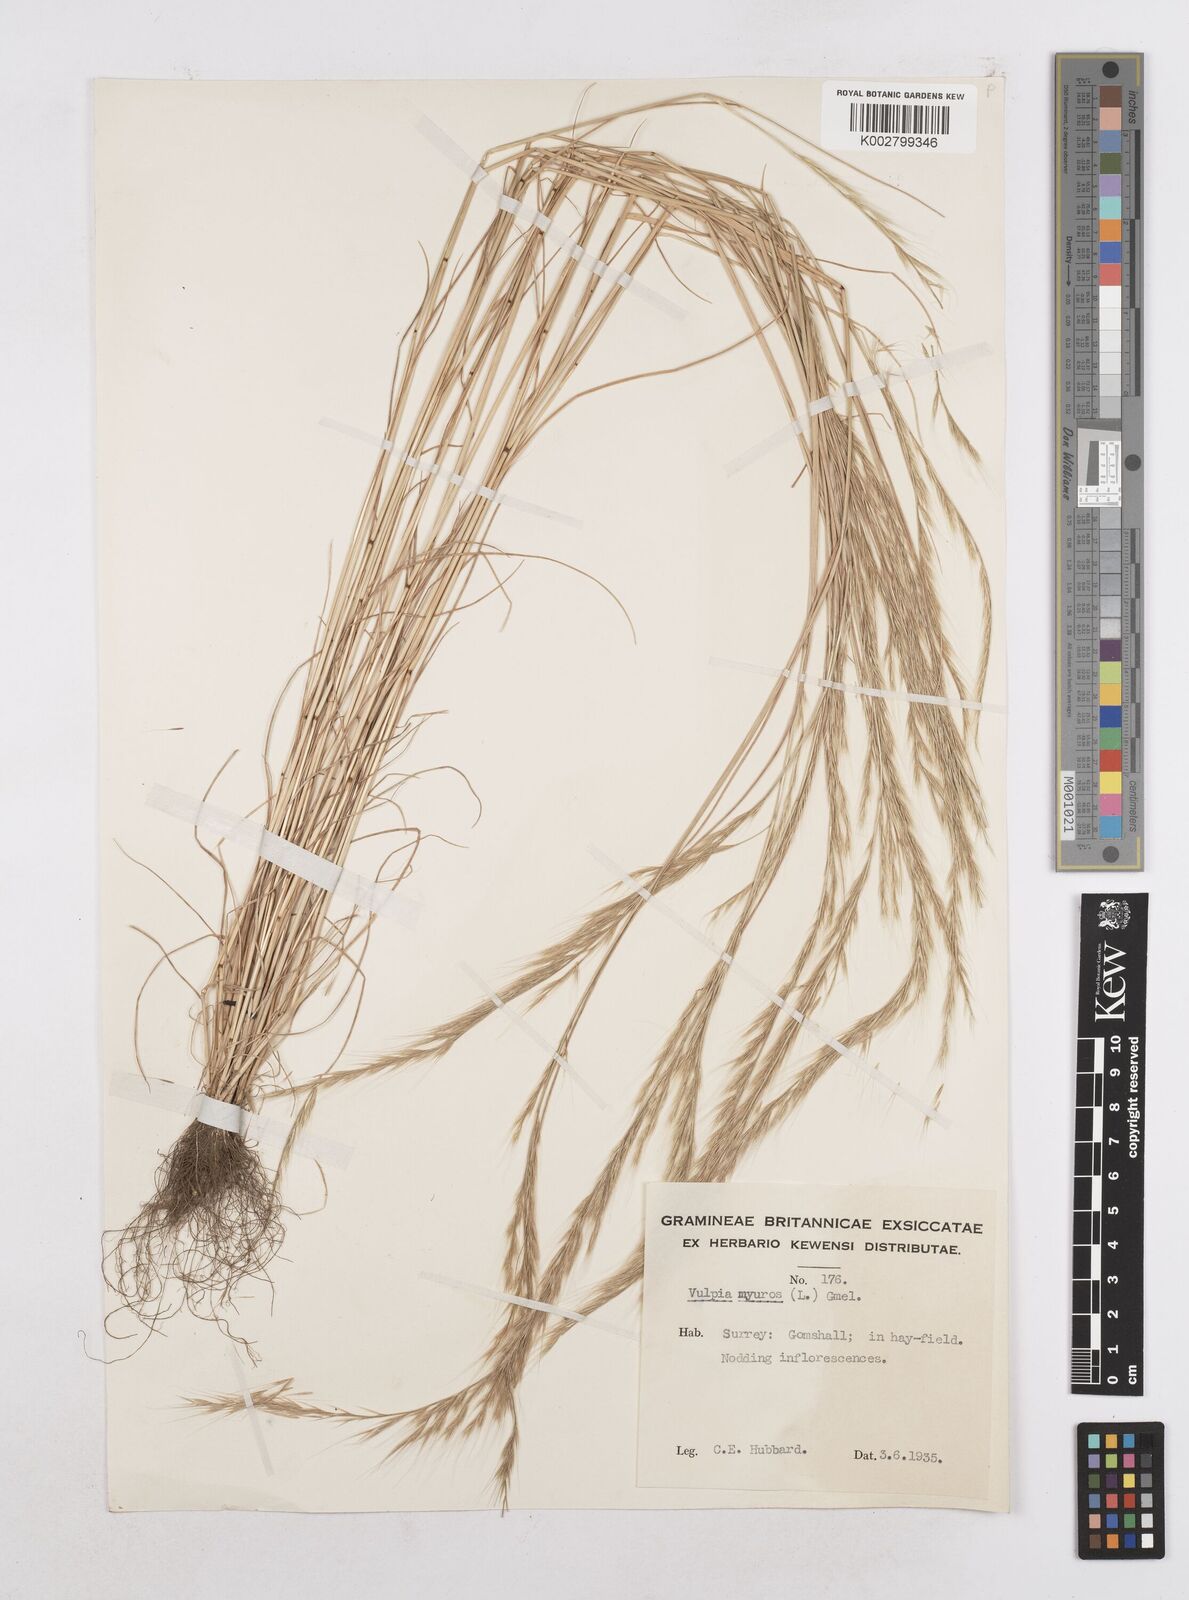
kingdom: Plantae
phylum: Tracheophyta
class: Liliopsida
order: Poales
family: Poaceae
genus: Festuca
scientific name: Festuca myuros
